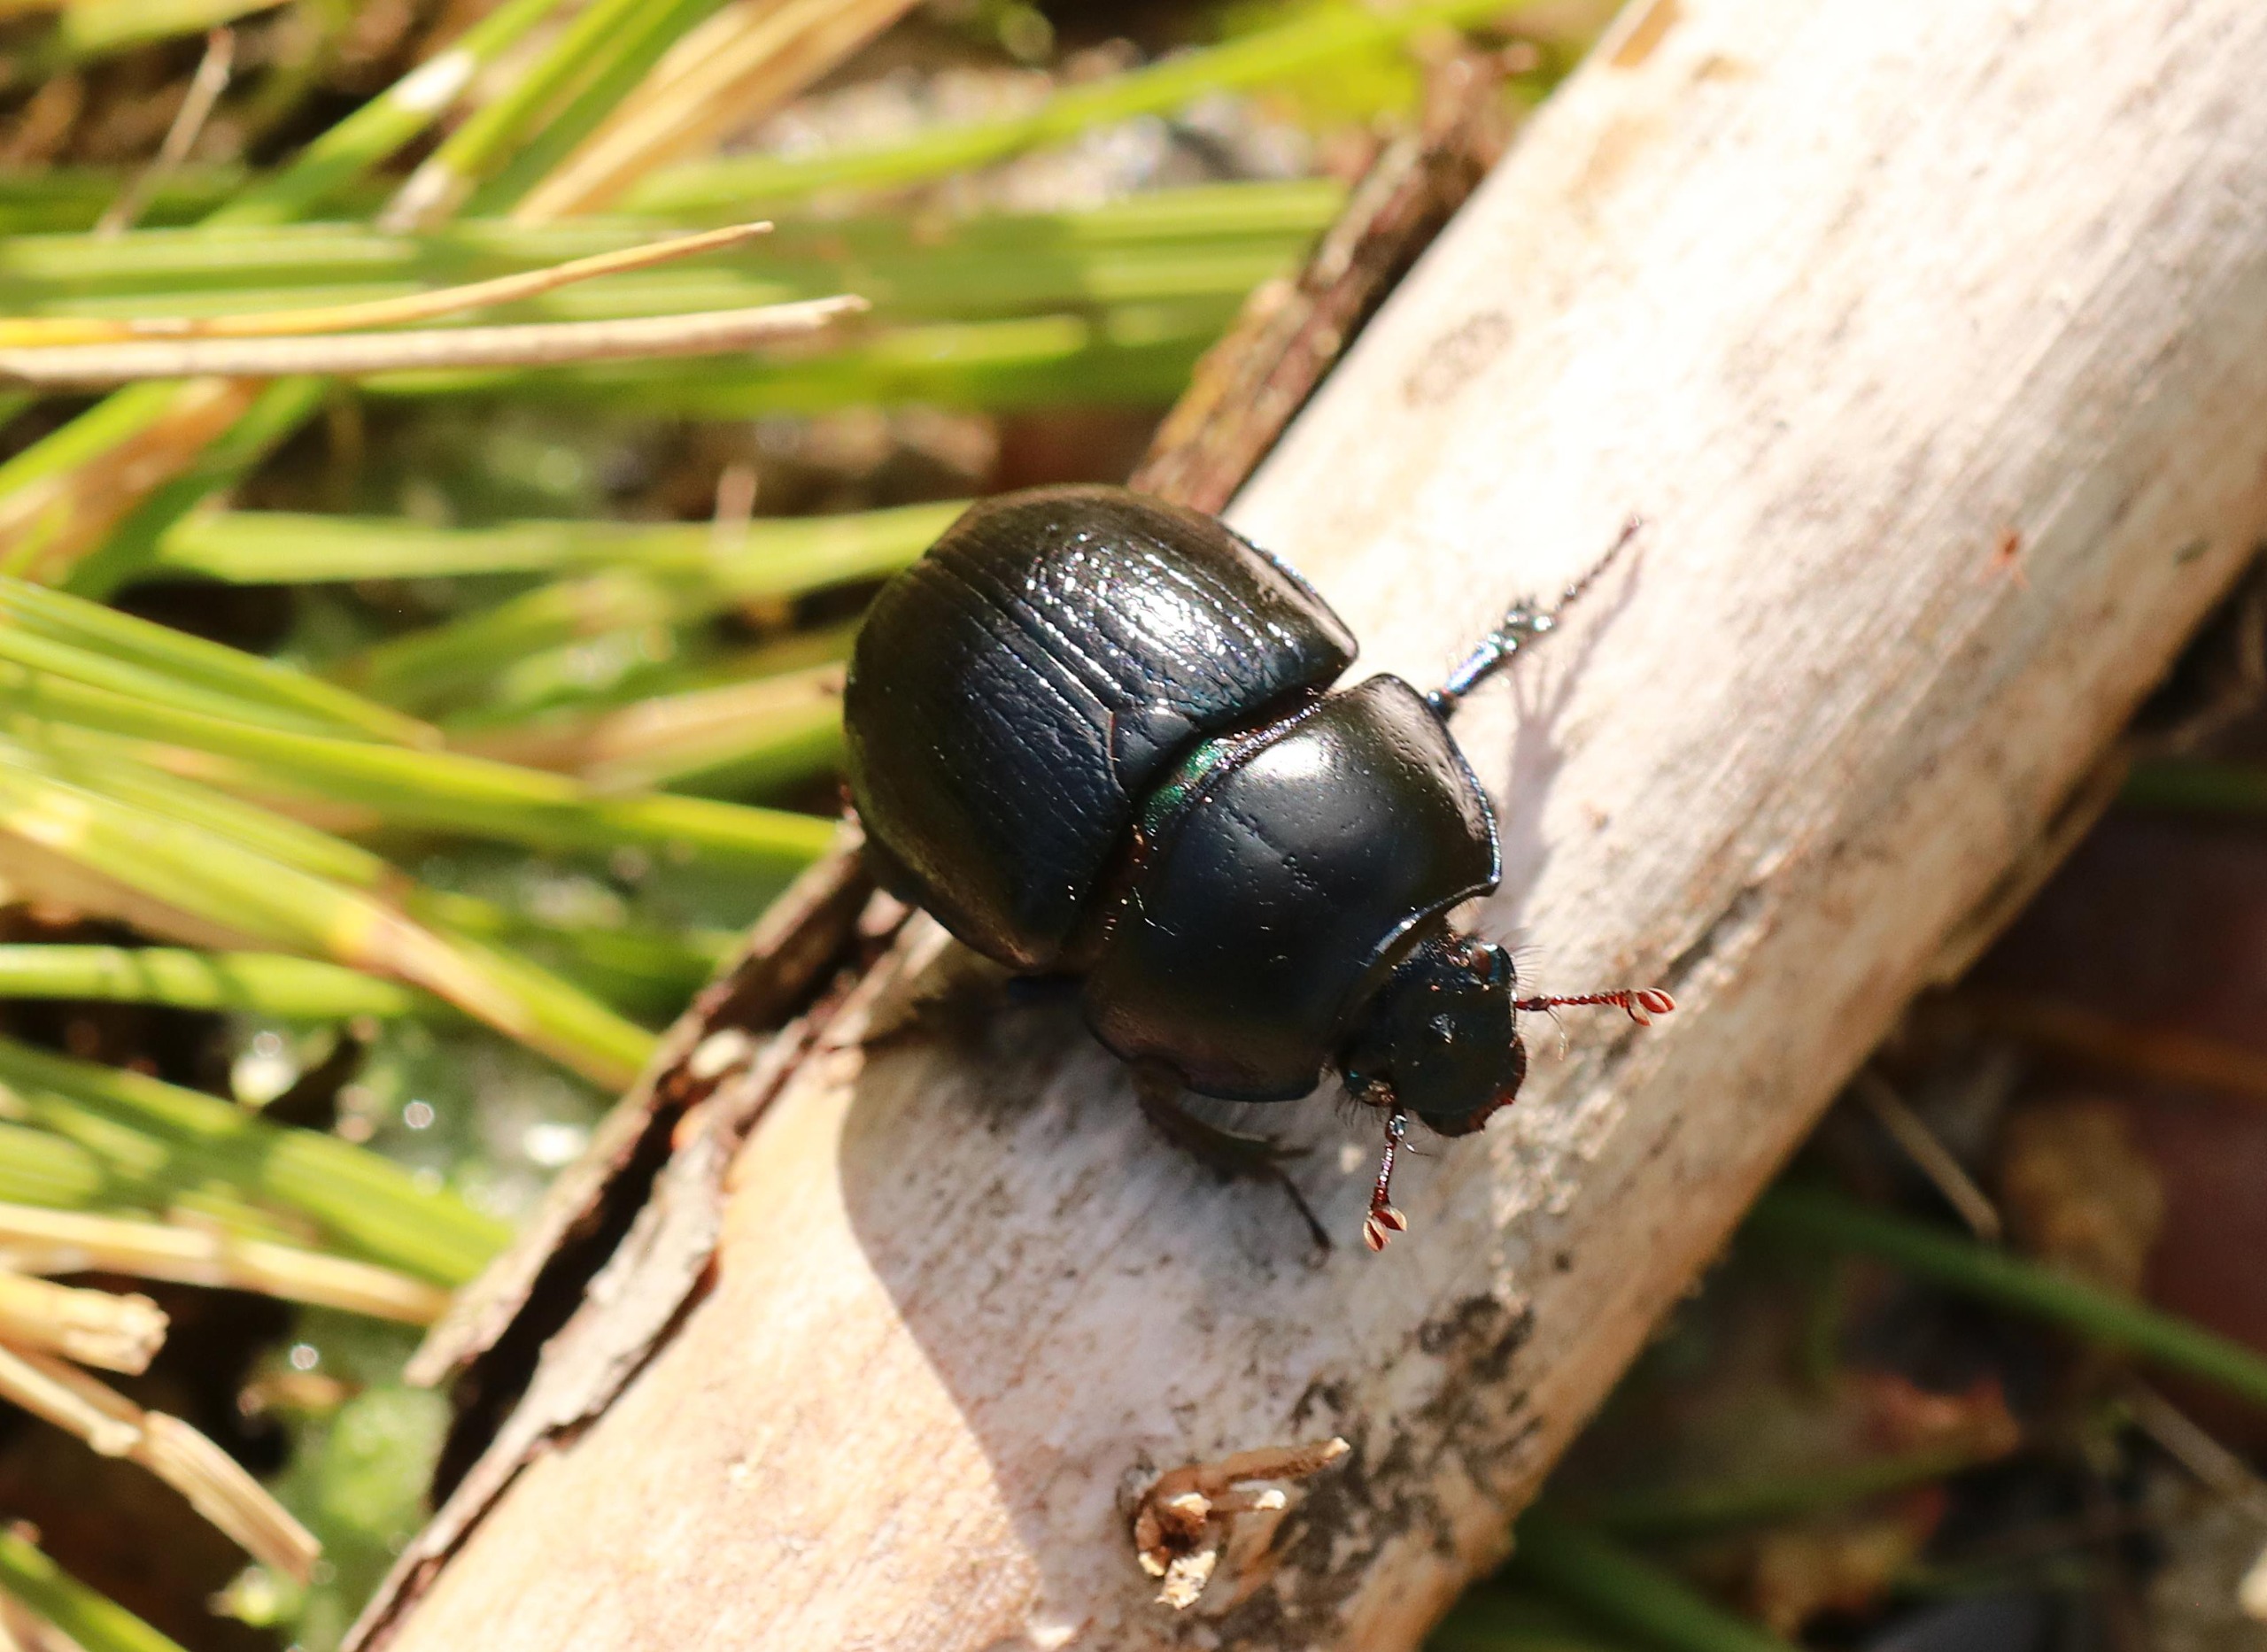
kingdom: Animalia
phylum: Arthropoda
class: Insecta
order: Coleoptera
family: Geotrupidae
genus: Anoplotrupes
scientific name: Anoplotrupes stercorosus
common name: Skovskarnbasse
